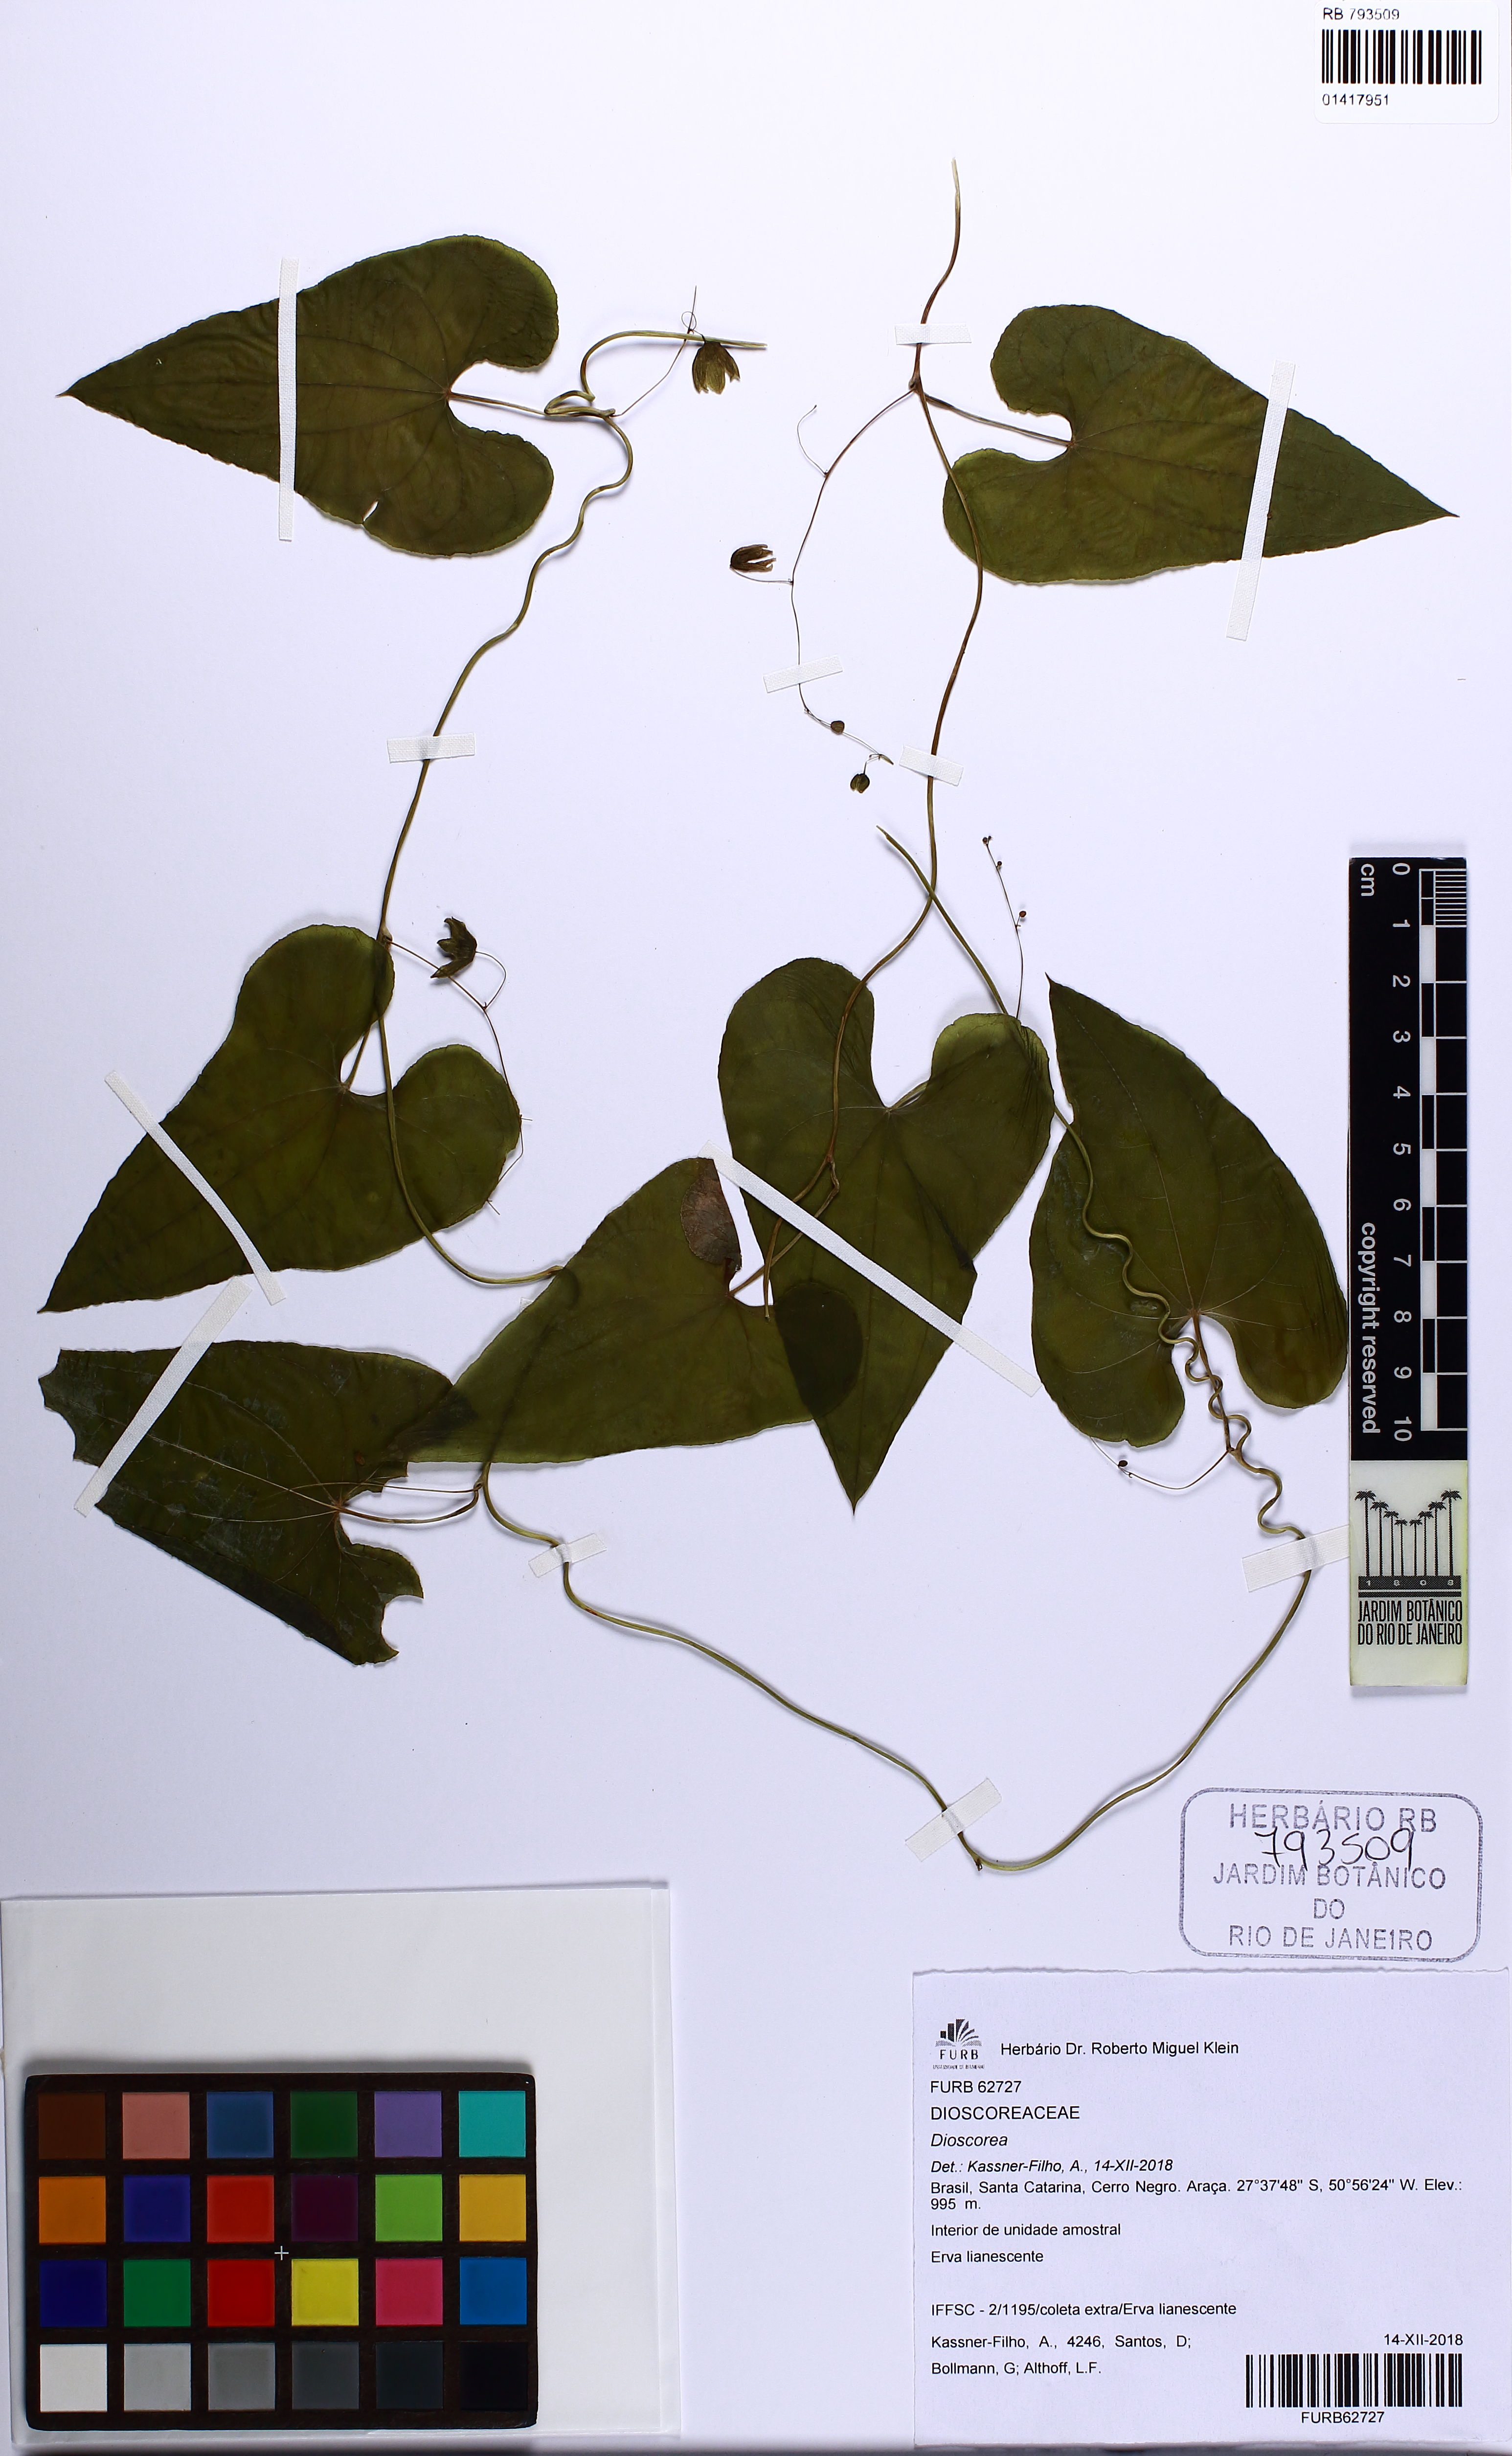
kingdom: Plantae
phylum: Tracheophyta
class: Liliopsida
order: Dioscoreales
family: Dioscoreaceae
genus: Dioscorea
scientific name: Dioscorea
